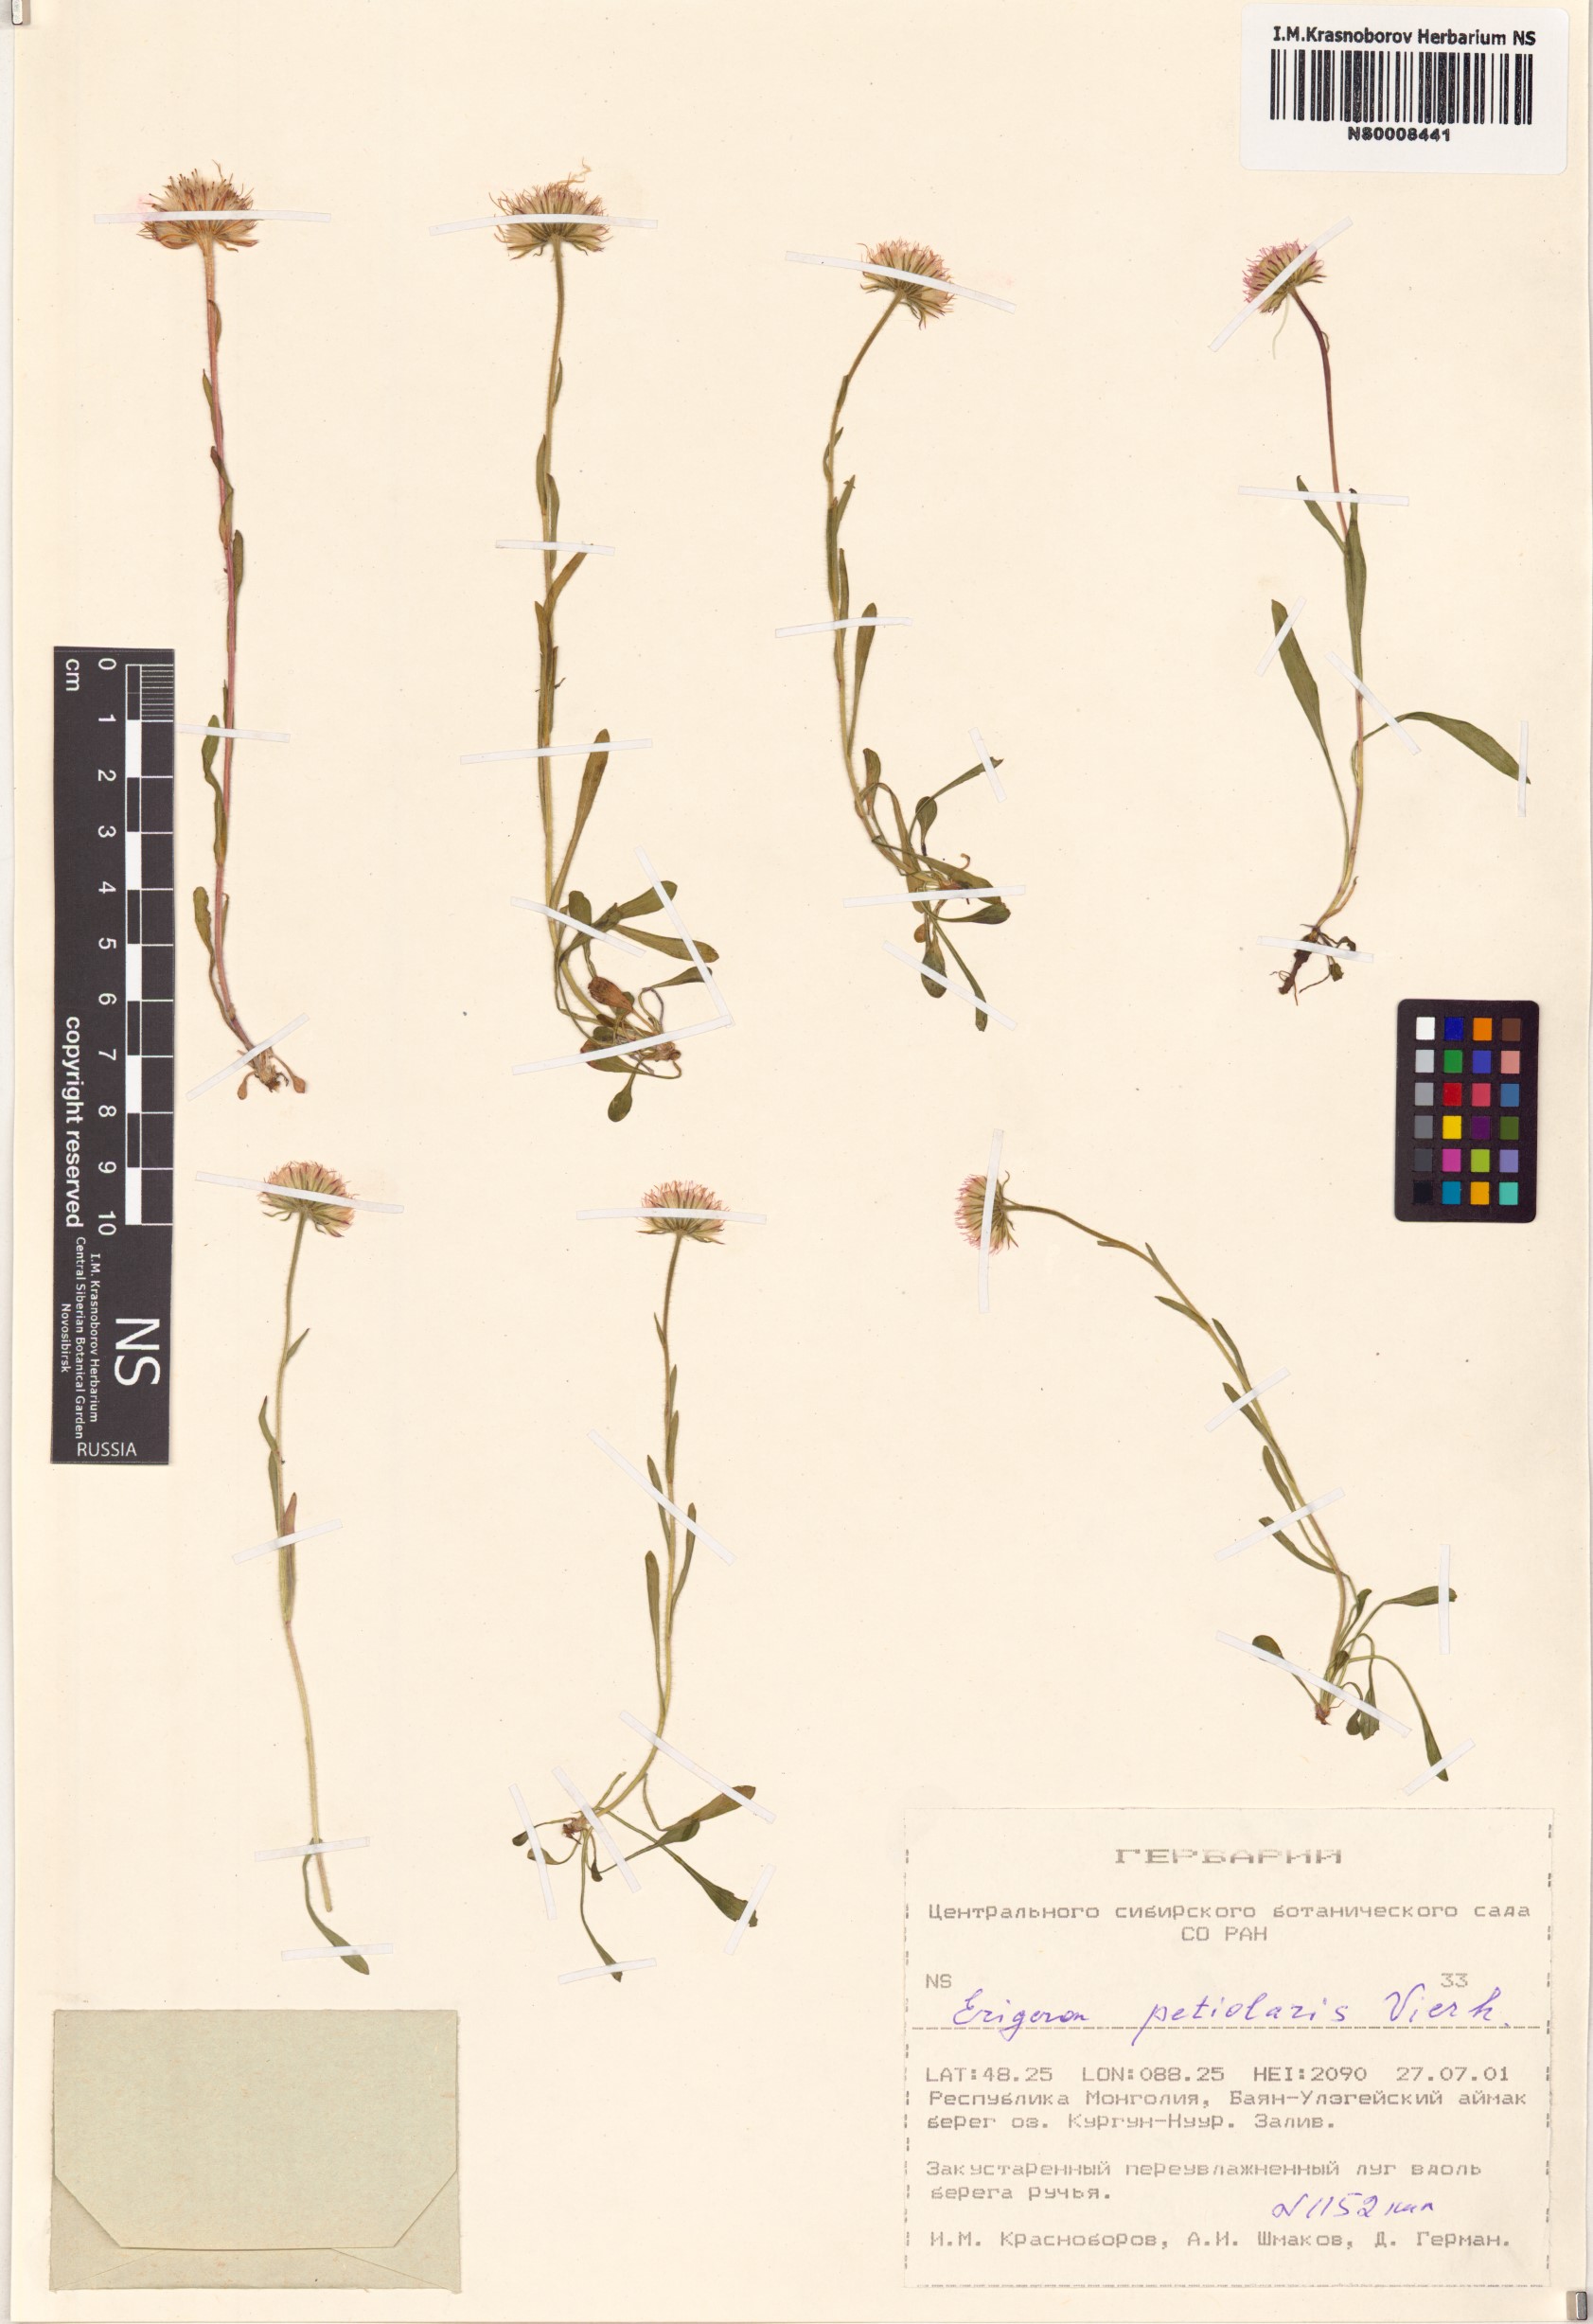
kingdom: Plantae
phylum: Tracheophyta
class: Magnoliopsida
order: Asterales
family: Asteraceae
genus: Erigeron
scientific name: Erigeron petiolaris
